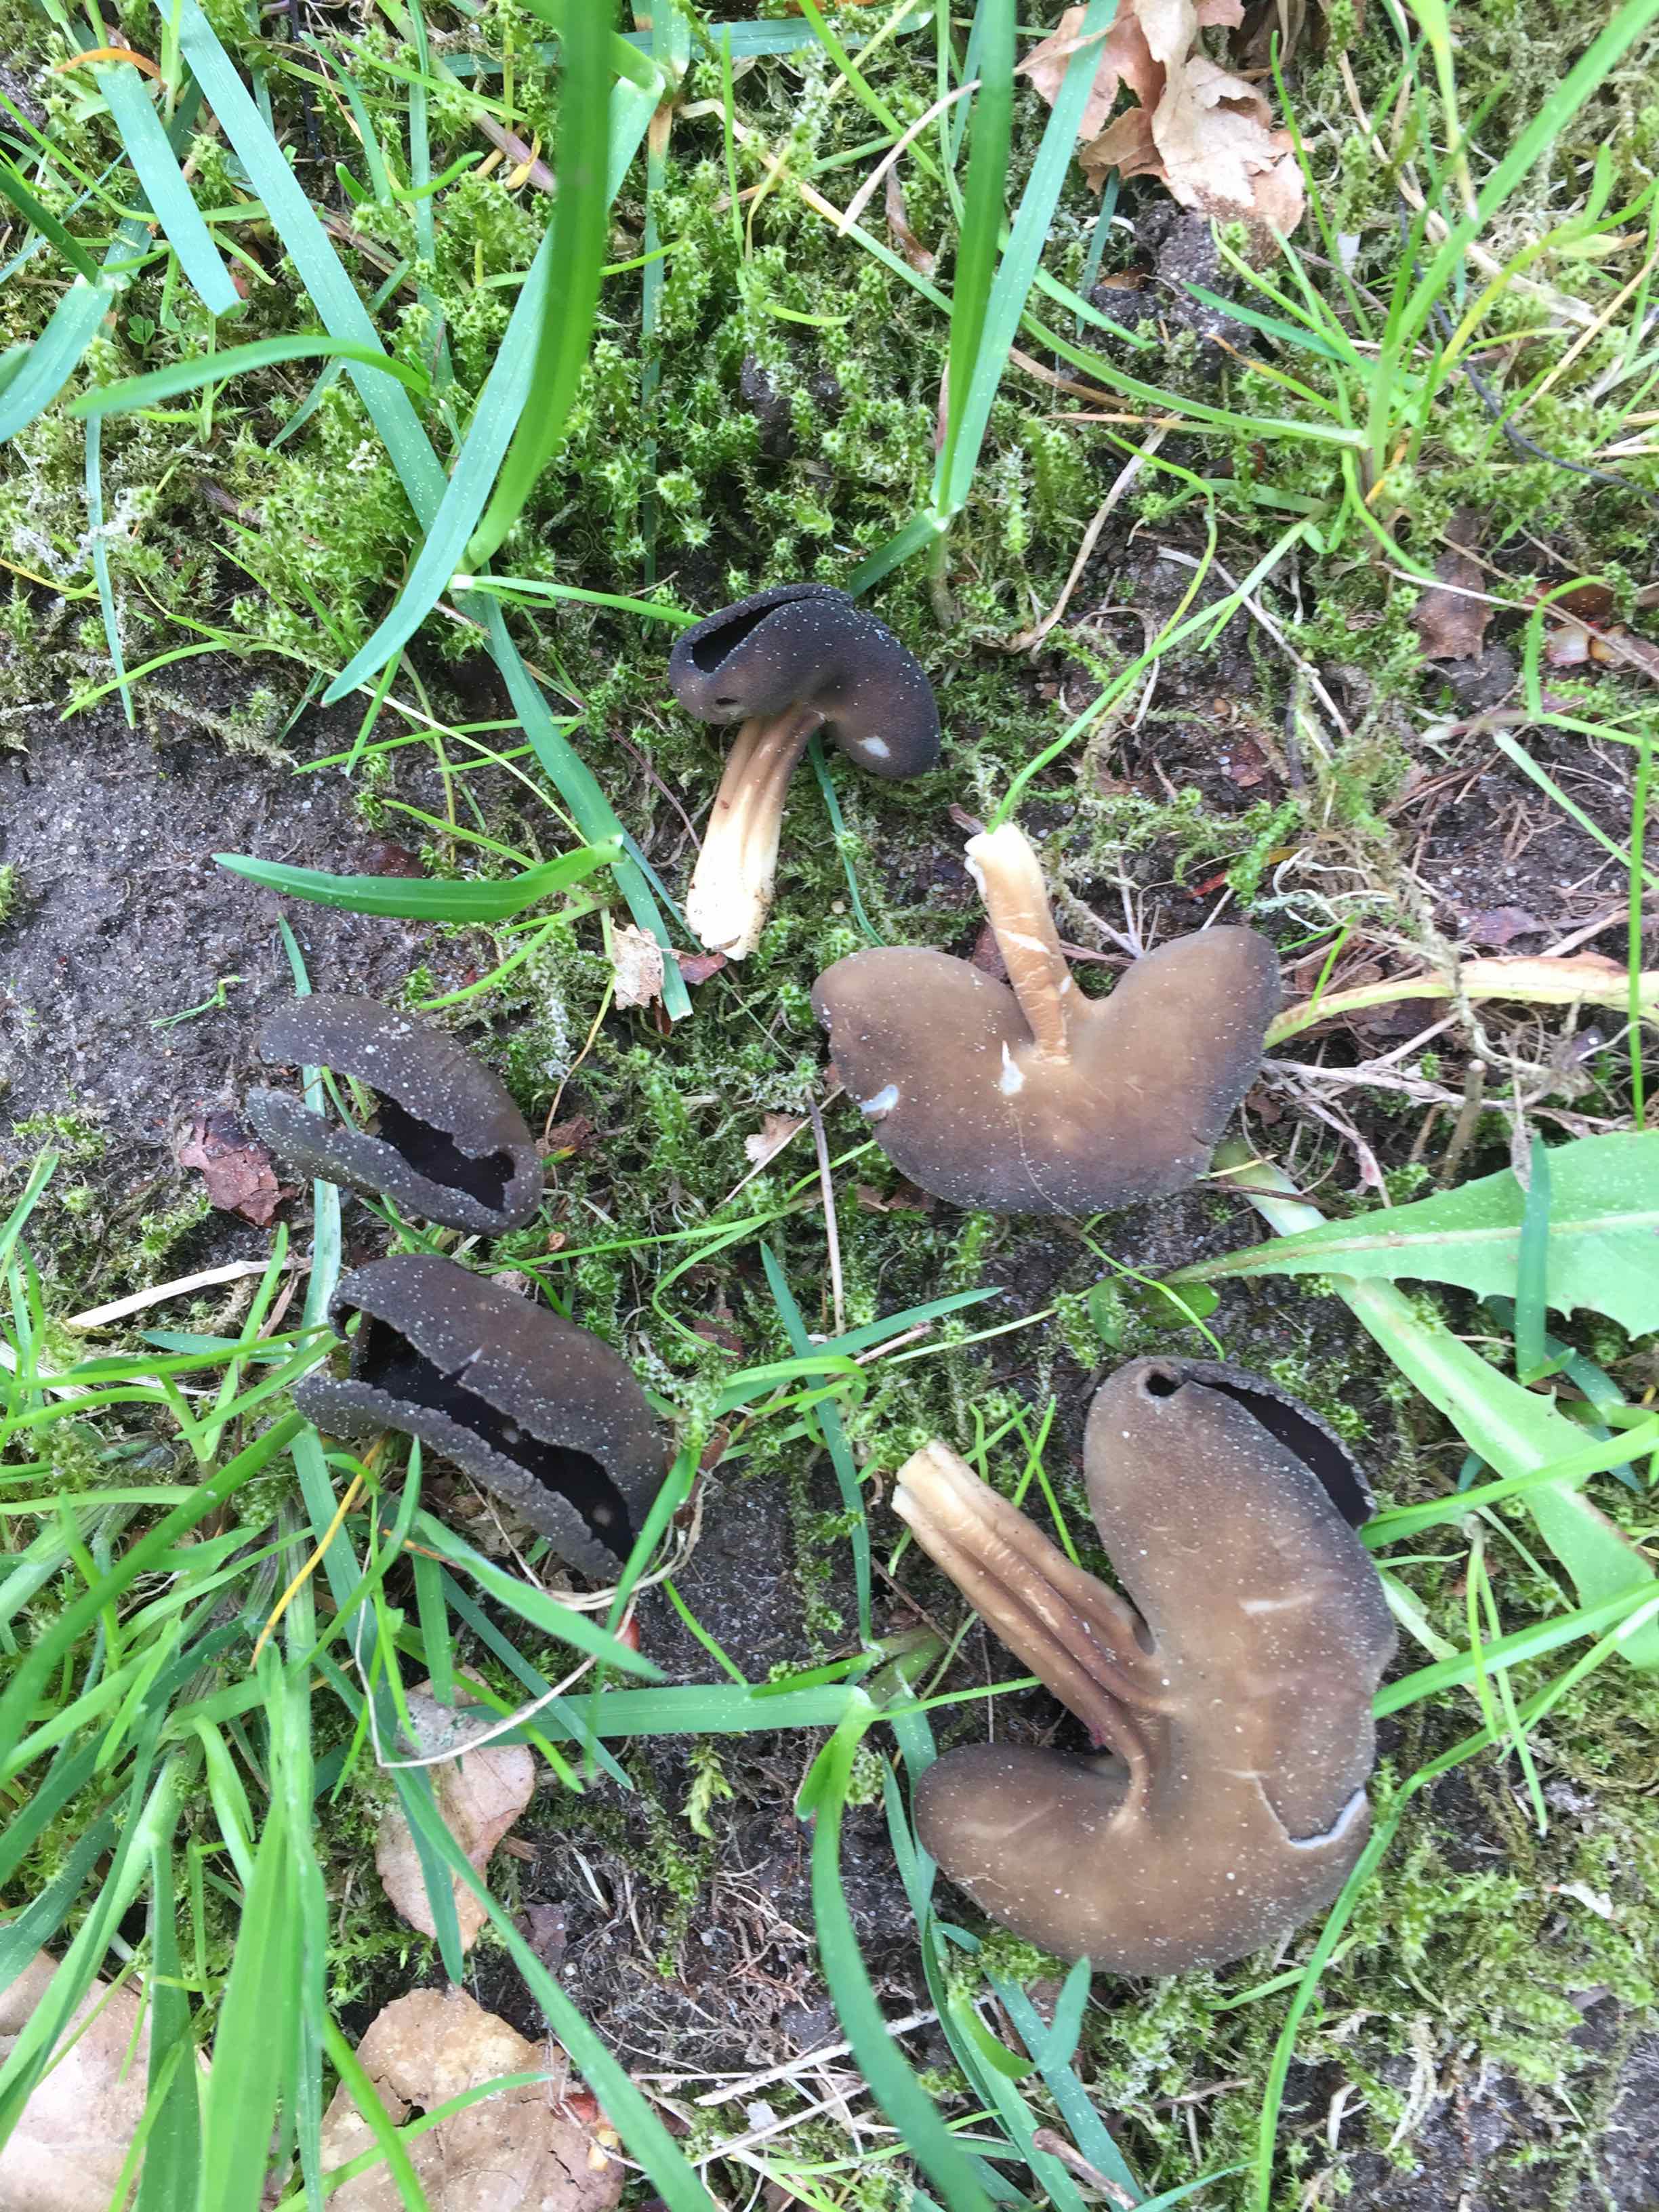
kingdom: Fungi
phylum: Ascomycota
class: Pezizomycetes
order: Pezizales
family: Helvellaceae
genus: Helvella
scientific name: Helvella solitaria
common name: Quélets foldhat
